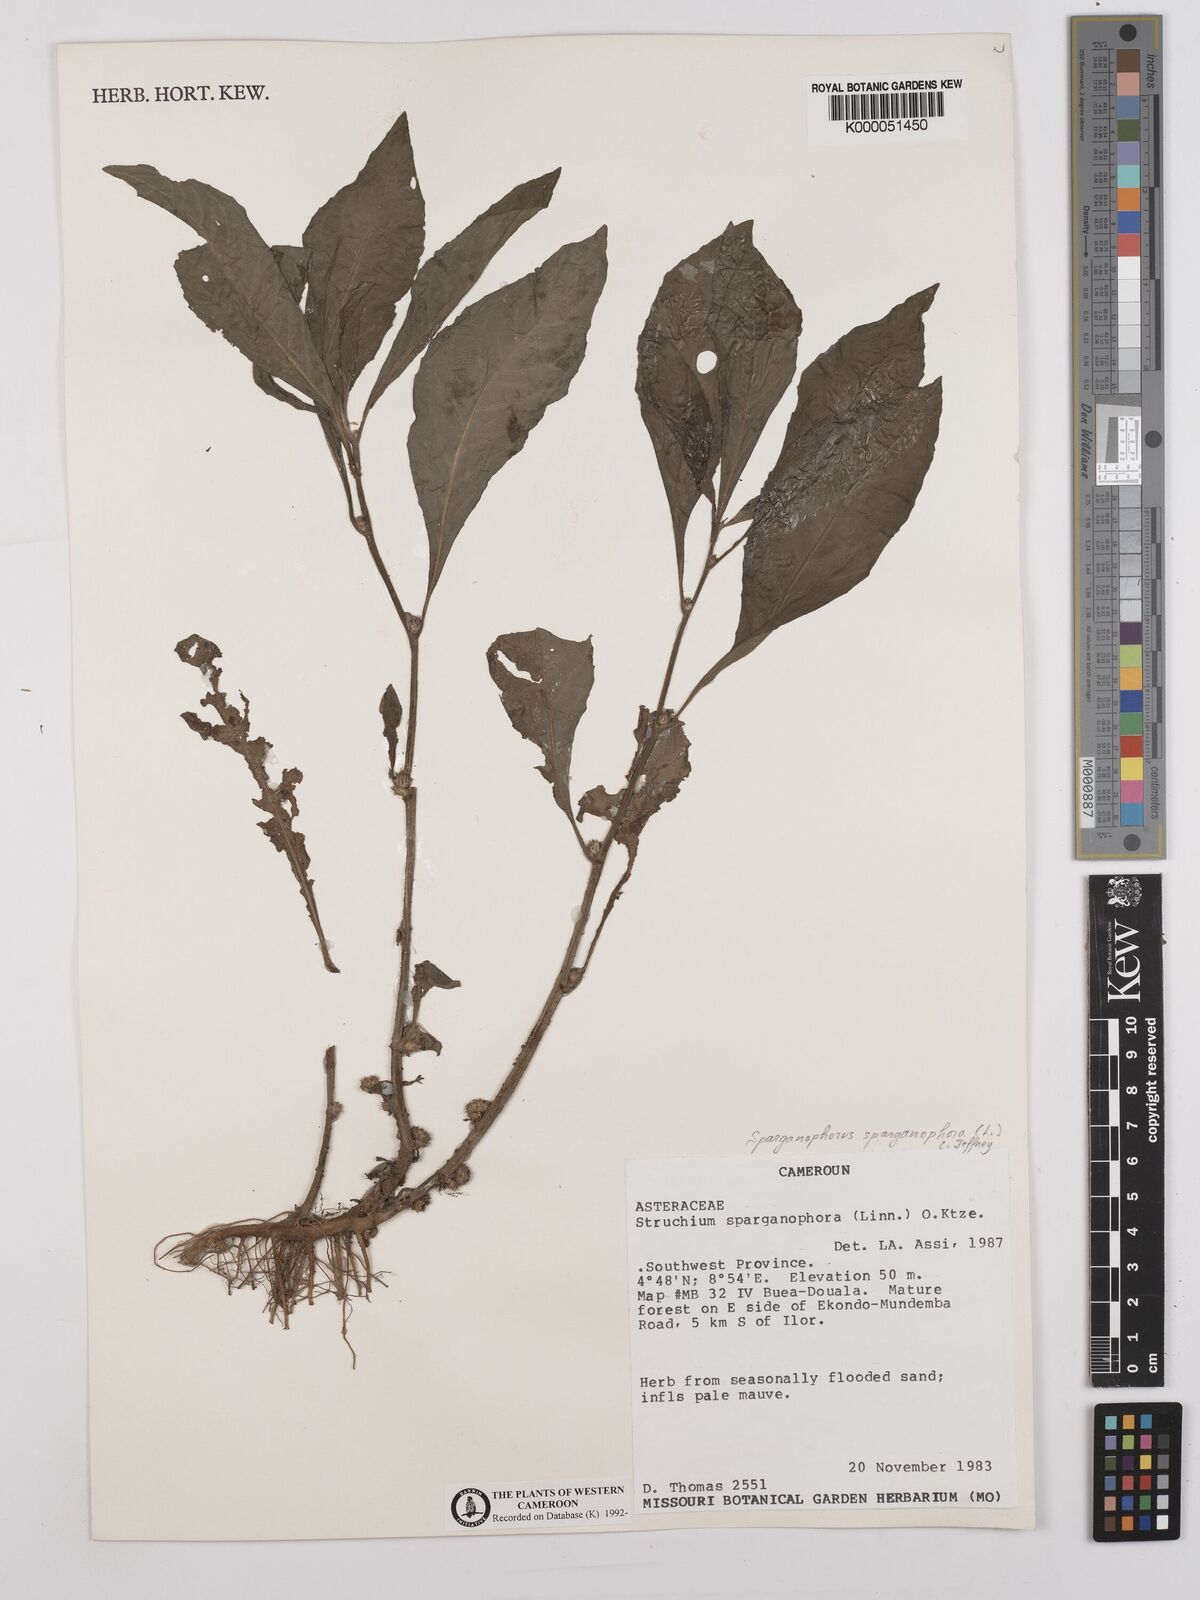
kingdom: Plantae
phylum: Tracheophyta
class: Magnoliopsida
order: Asterales
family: Asteraceae
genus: Struchium
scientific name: Struchium sparganophorum
